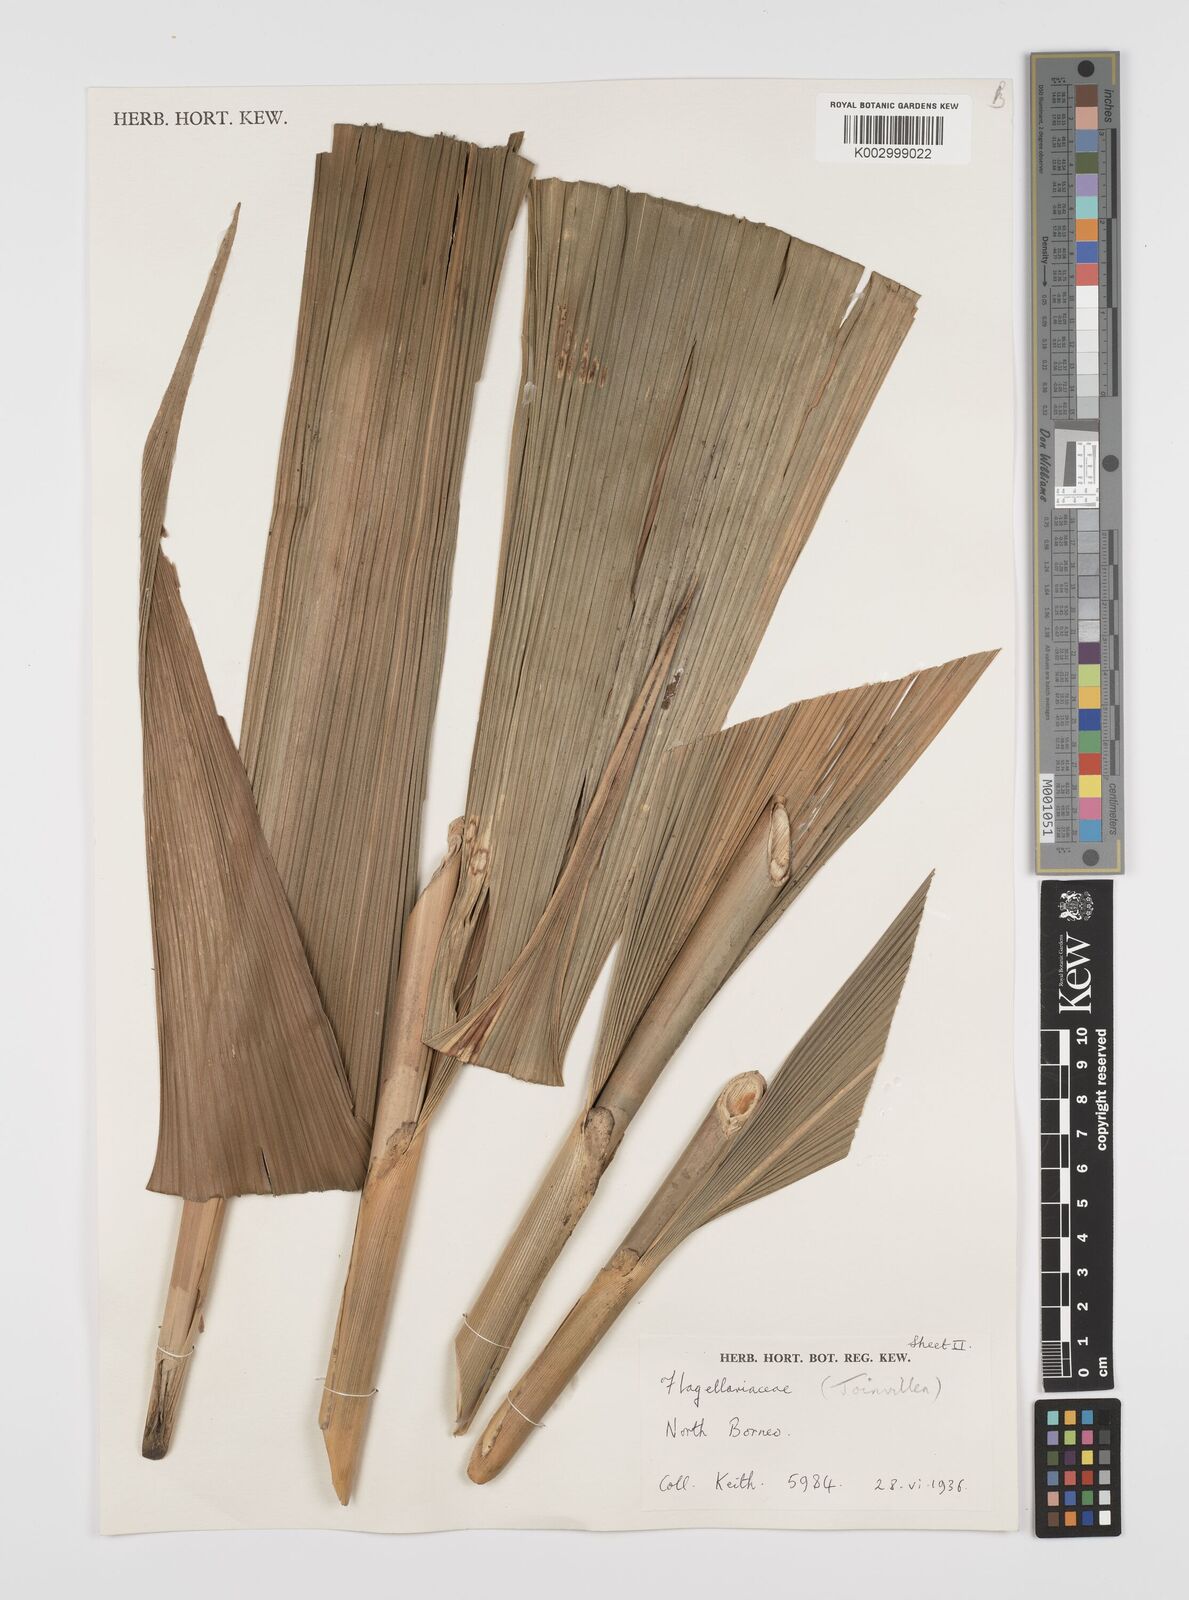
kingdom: Plantae
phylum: Tracheophyta
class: Liliopsida
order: Poales
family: Joinvilleaceae
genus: Joinvillea
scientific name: Joinvillea borneensis
